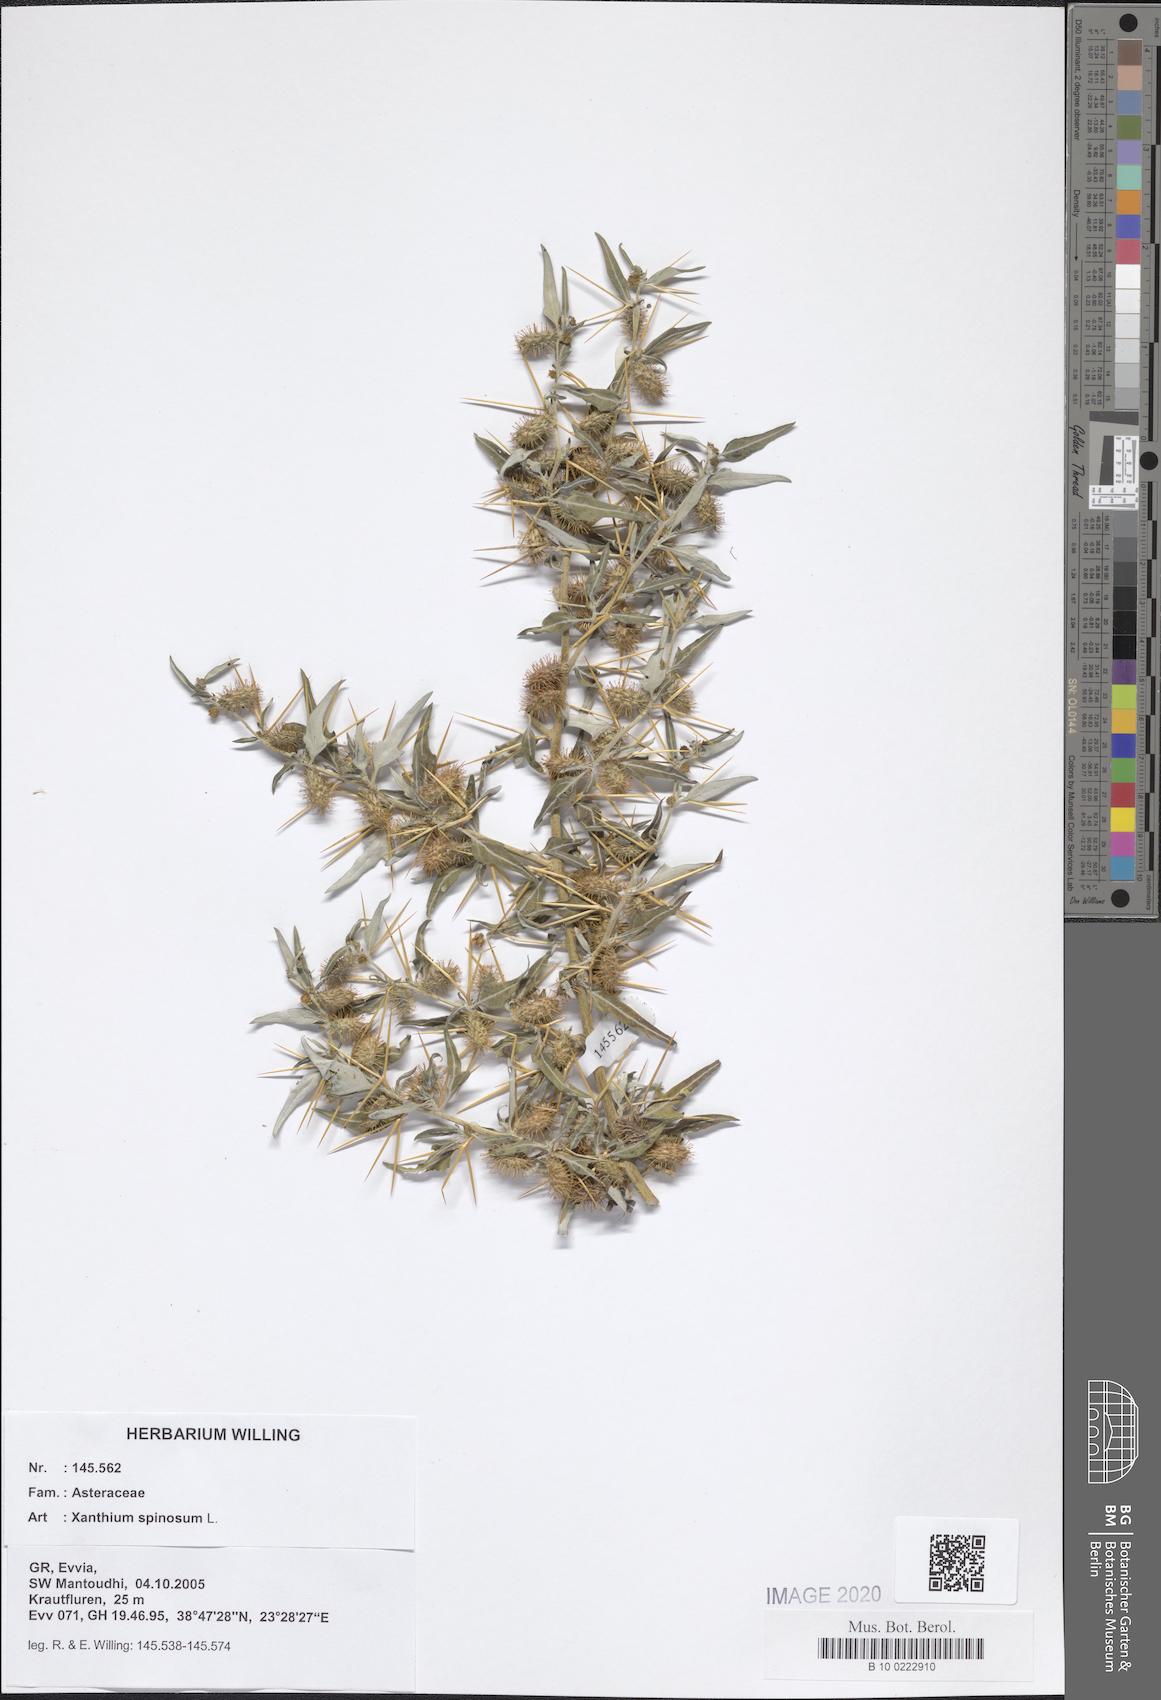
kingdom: Plantae
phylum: Tracheophyta
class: Magnoliopsida
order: Asterales
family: Asteraceae
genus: Xanthium
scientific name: Xanthium spinosum
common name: Spiny cocklebur
